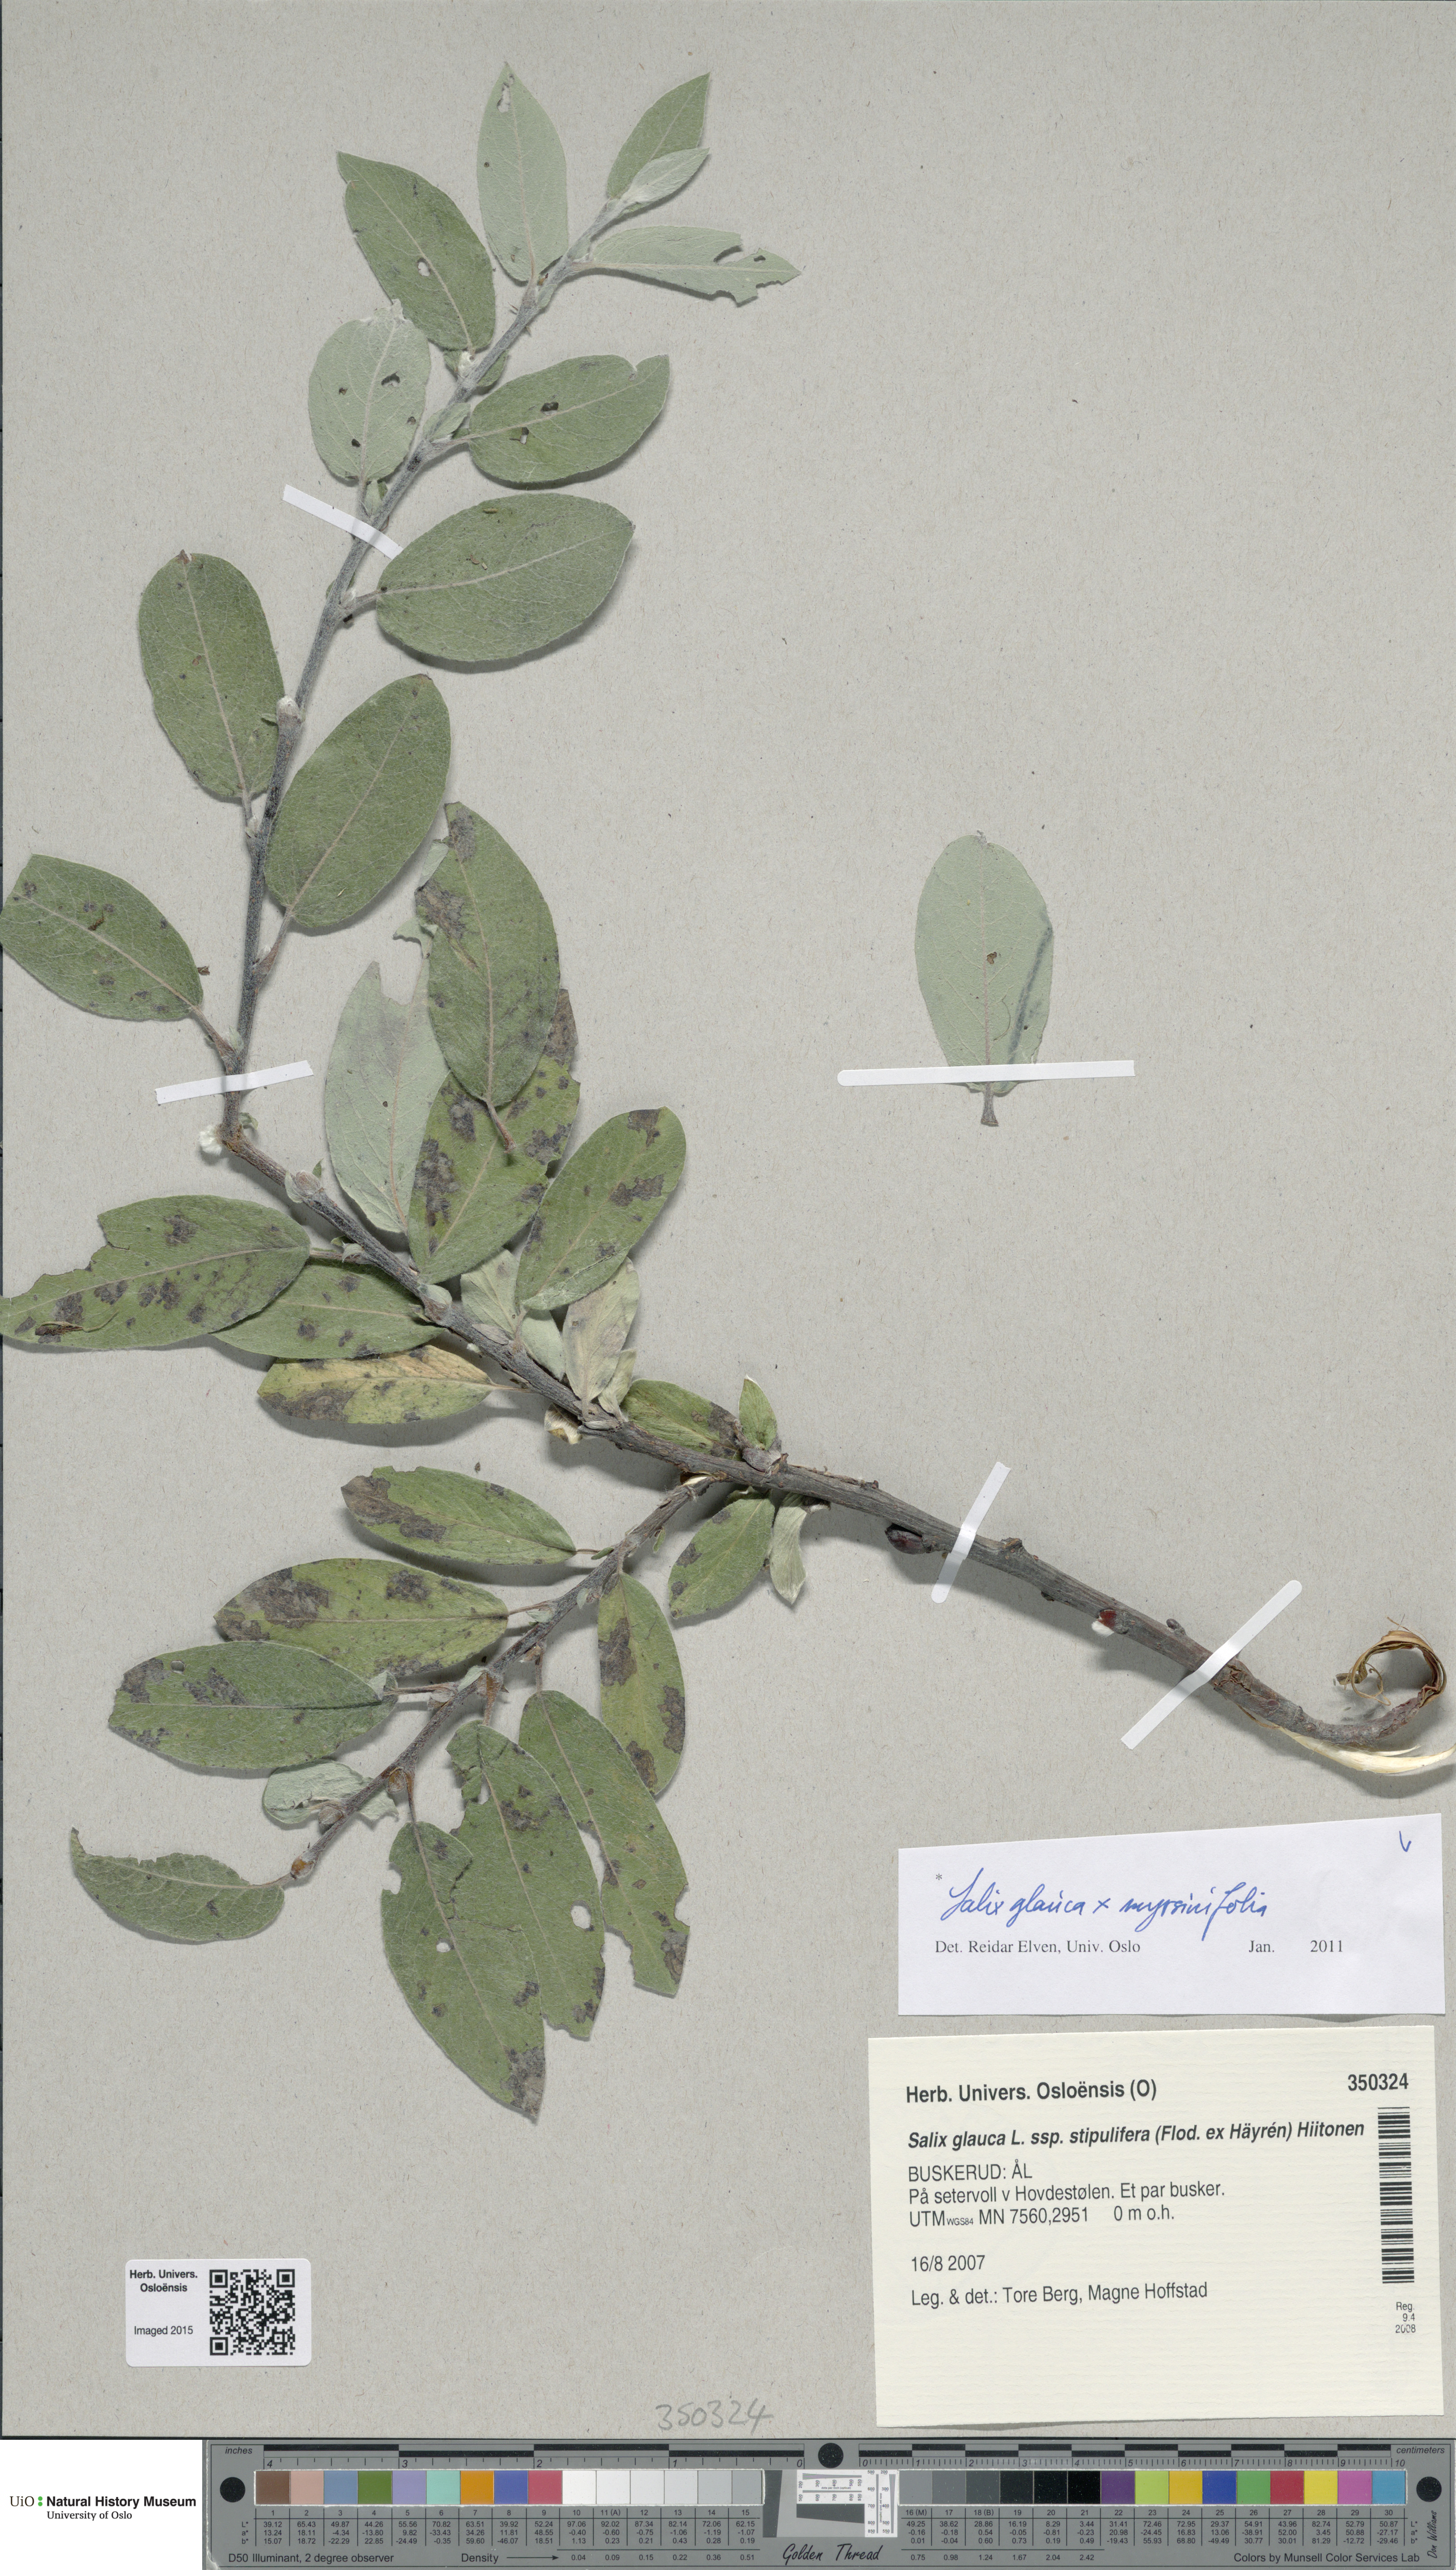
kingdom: Plantae
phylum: Tracheophyta
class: Magnoliopsida
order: Malpighiales
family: Salicaceae
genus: Salix
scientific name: Salix
